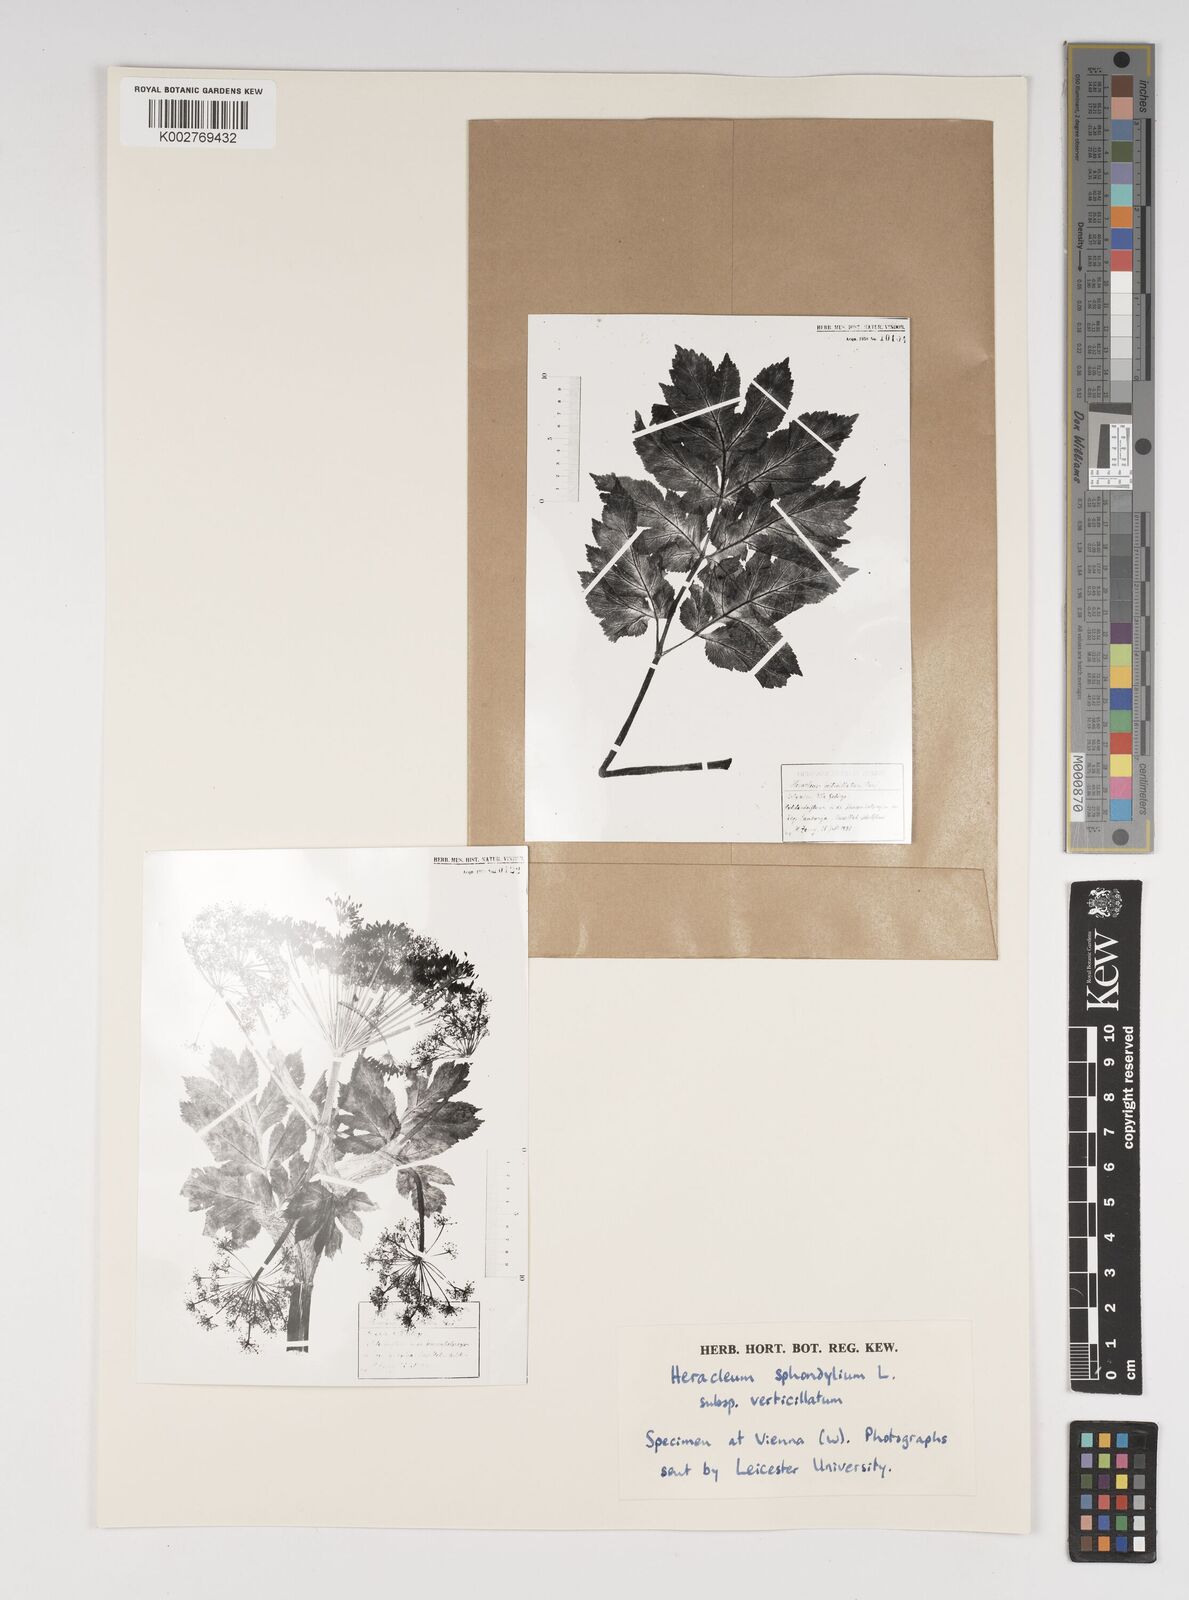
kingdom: Plantae
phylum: Tracheophyta
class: Magnoliopsida
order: Apiales
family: Apiaceae
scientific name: Apiaceae
